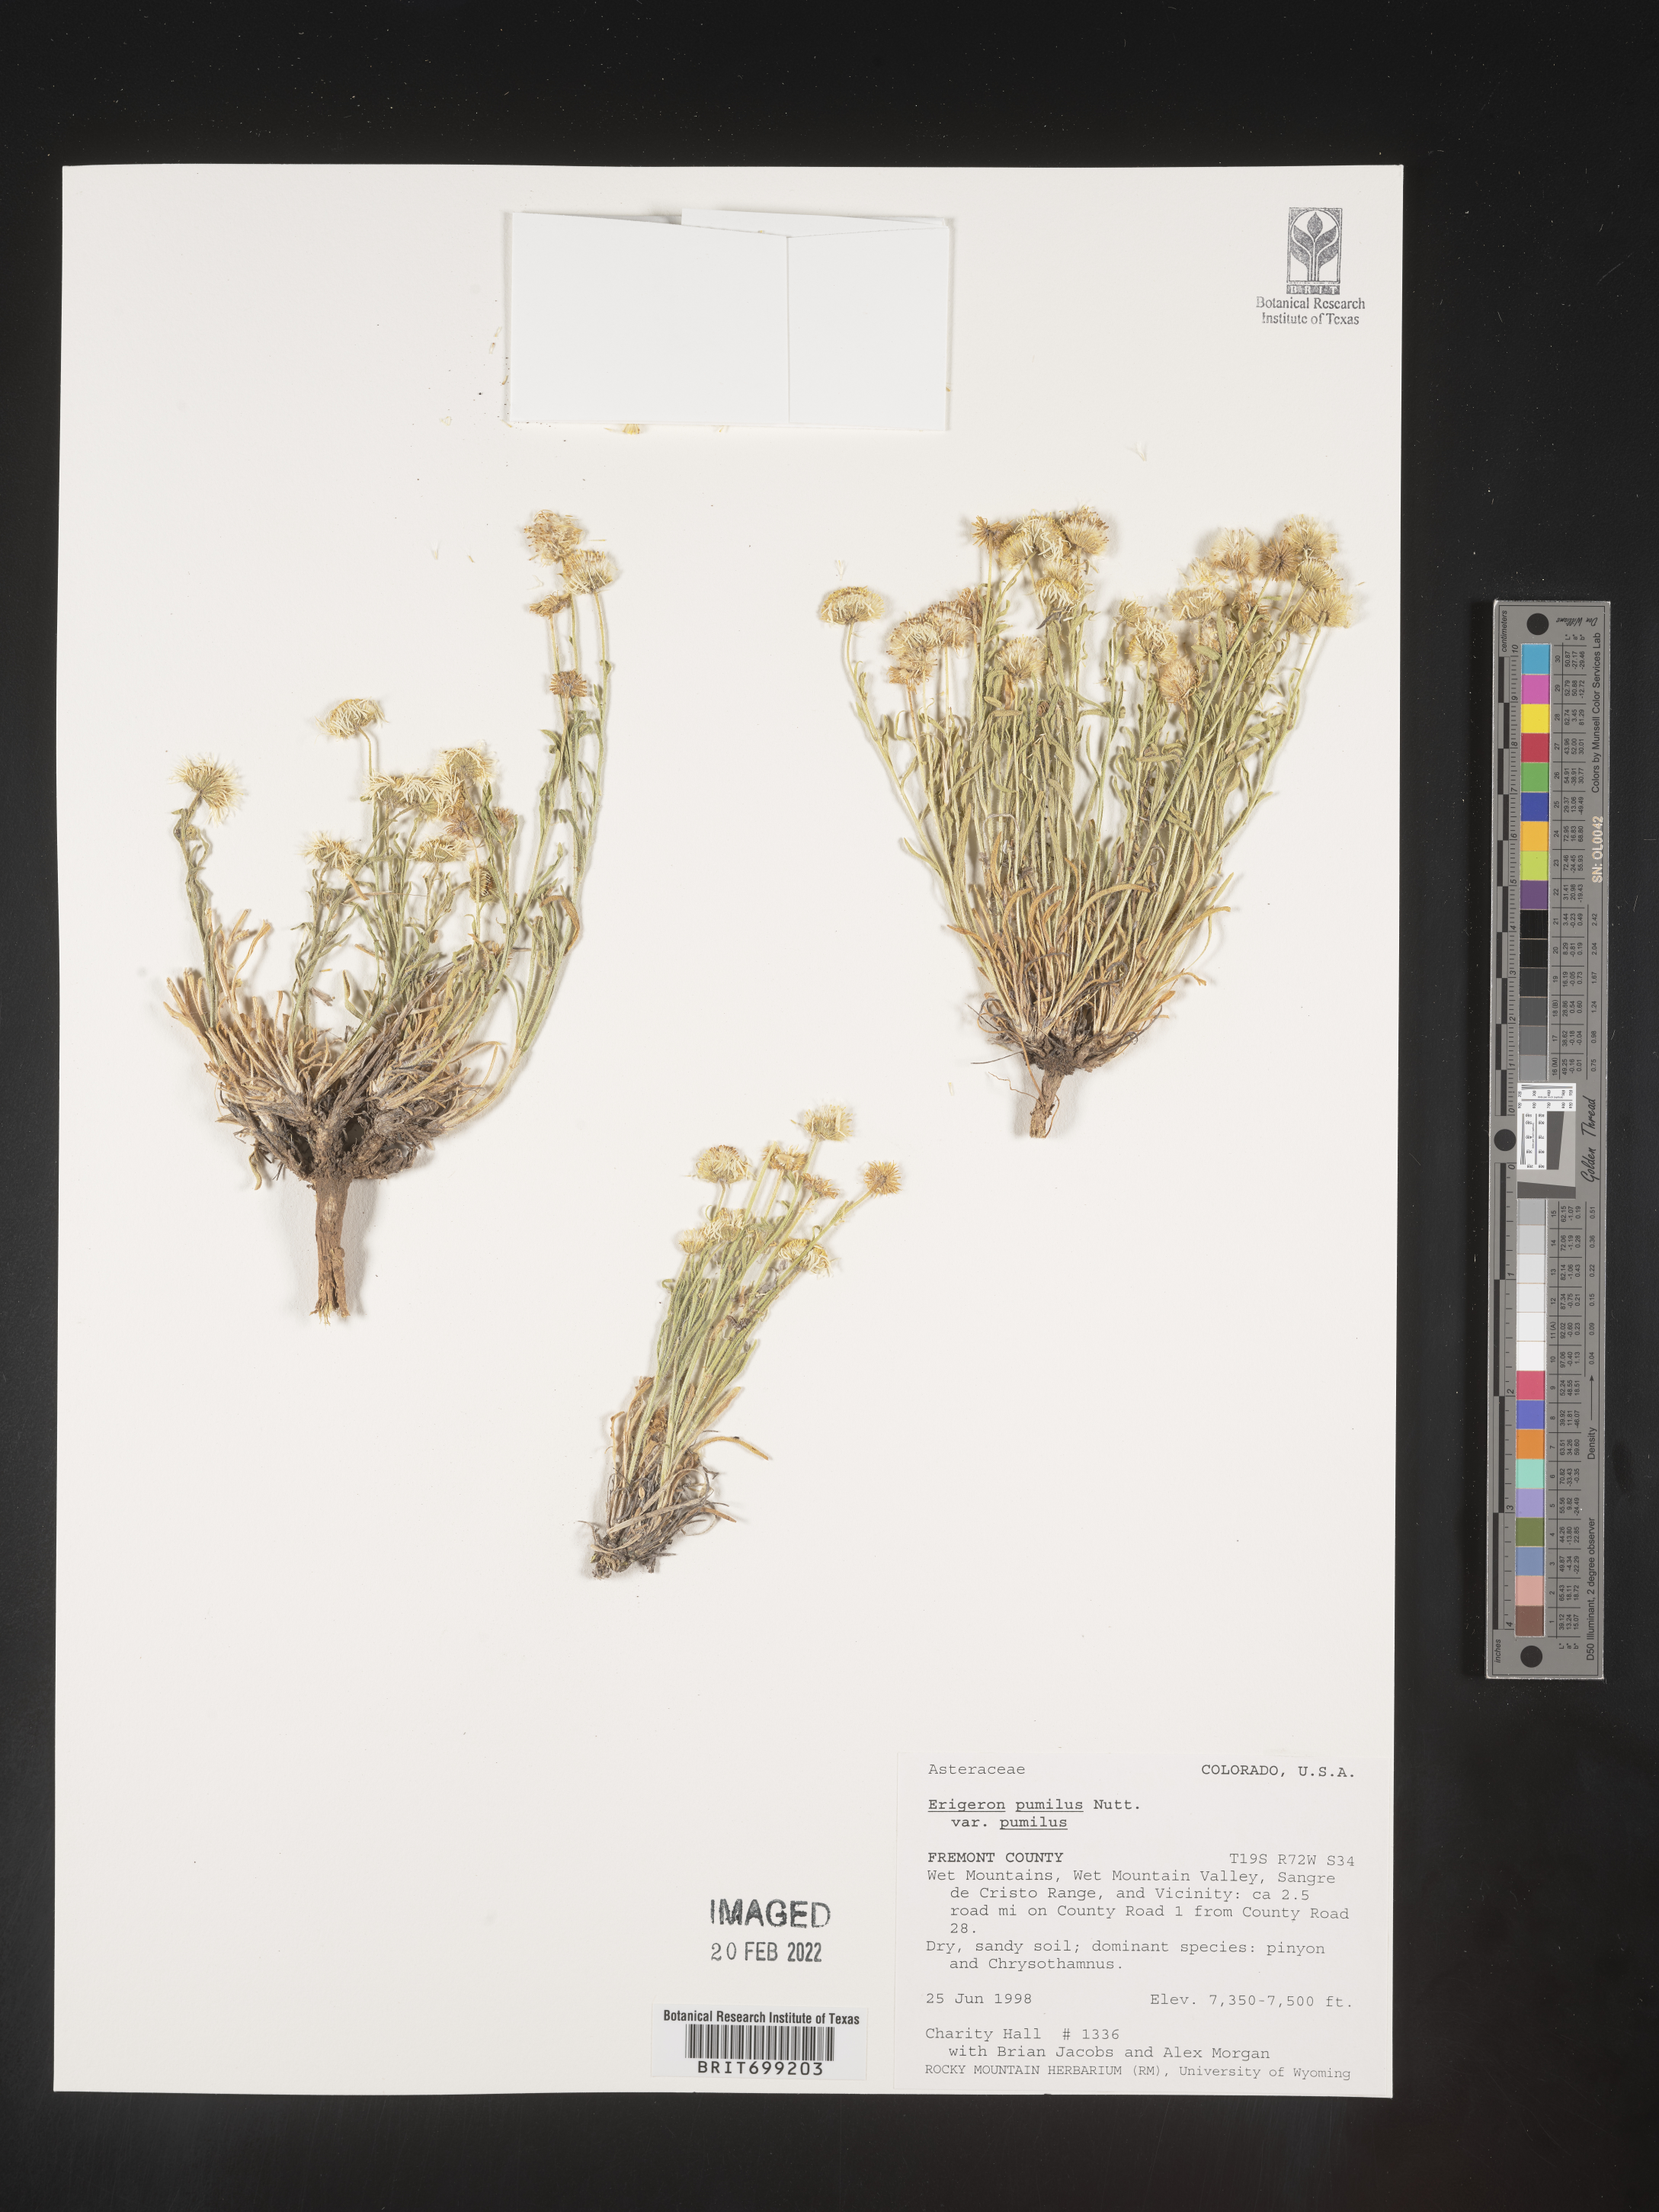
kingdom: Plantae
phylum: Tracheophyta
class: Magnoliopsida
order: Asterales
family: Asteraceae
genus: Erigeron
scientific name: Erigeron pumilus
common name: Shaggy fleabane
